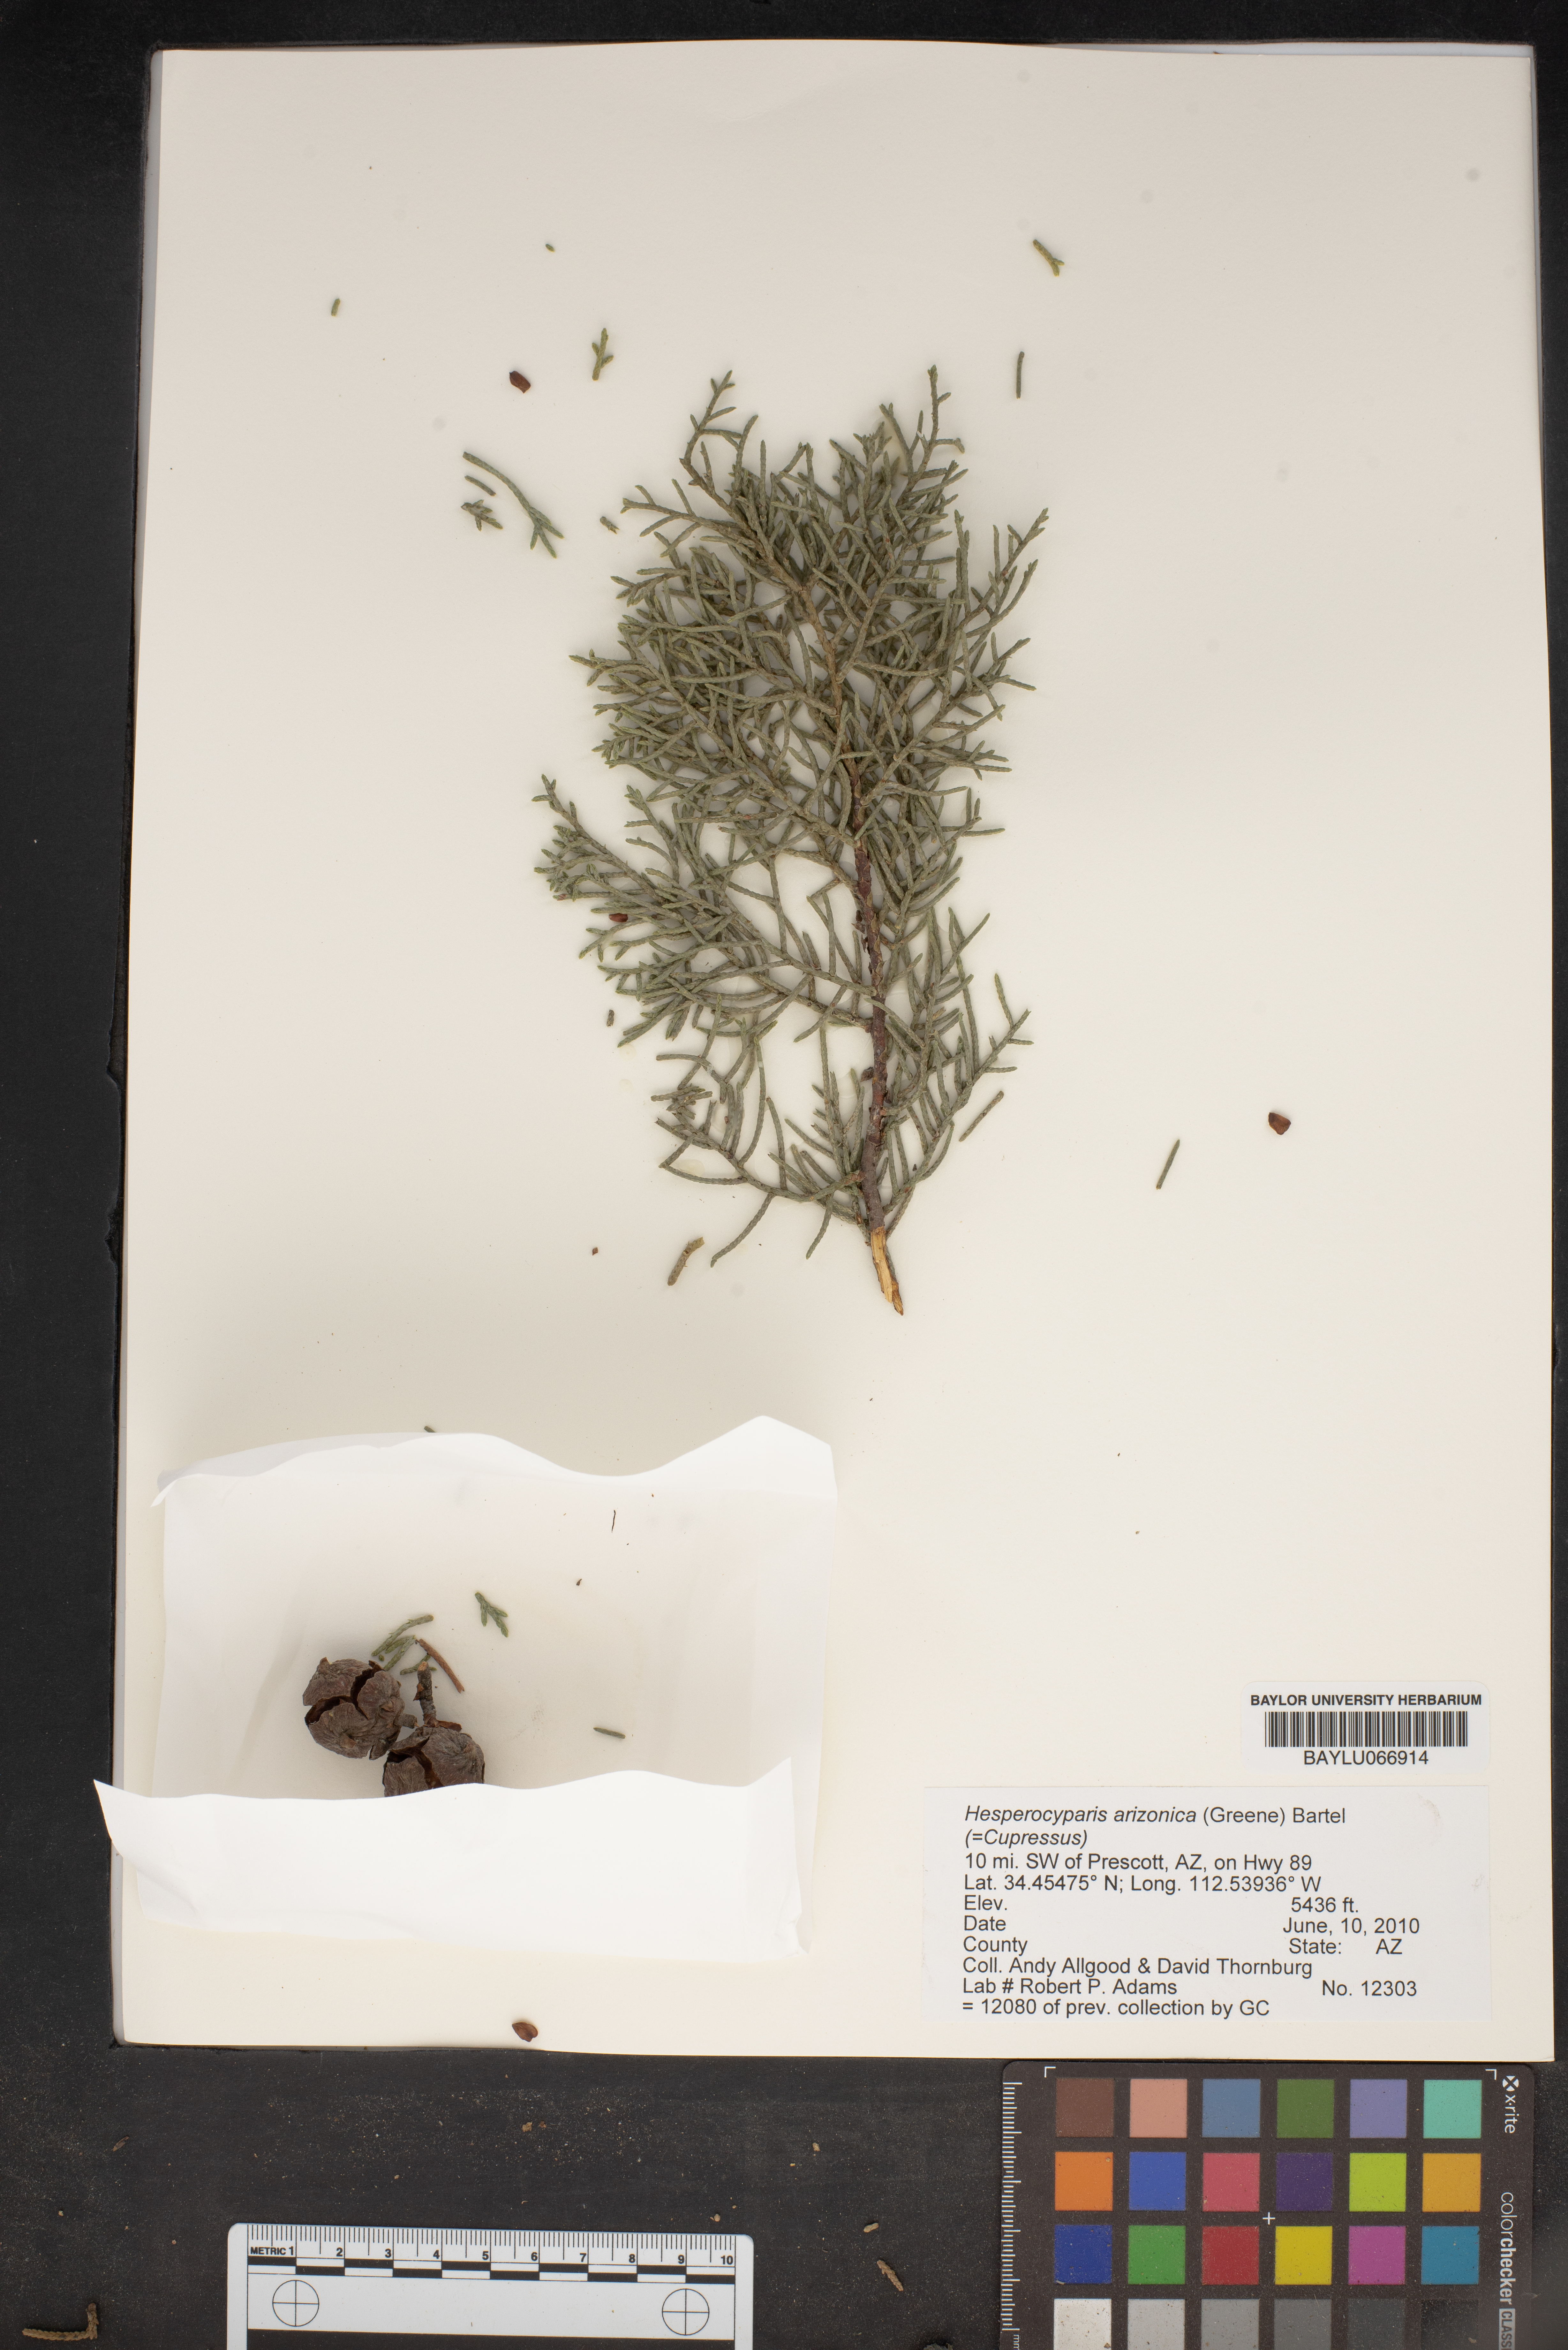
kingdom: Plantae
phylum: Tracheophyta
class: Pinopsida
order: Pinales
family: Cupressaceae
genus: Cupressus
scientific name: Cupressus arizonica
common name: Arizona cypress
